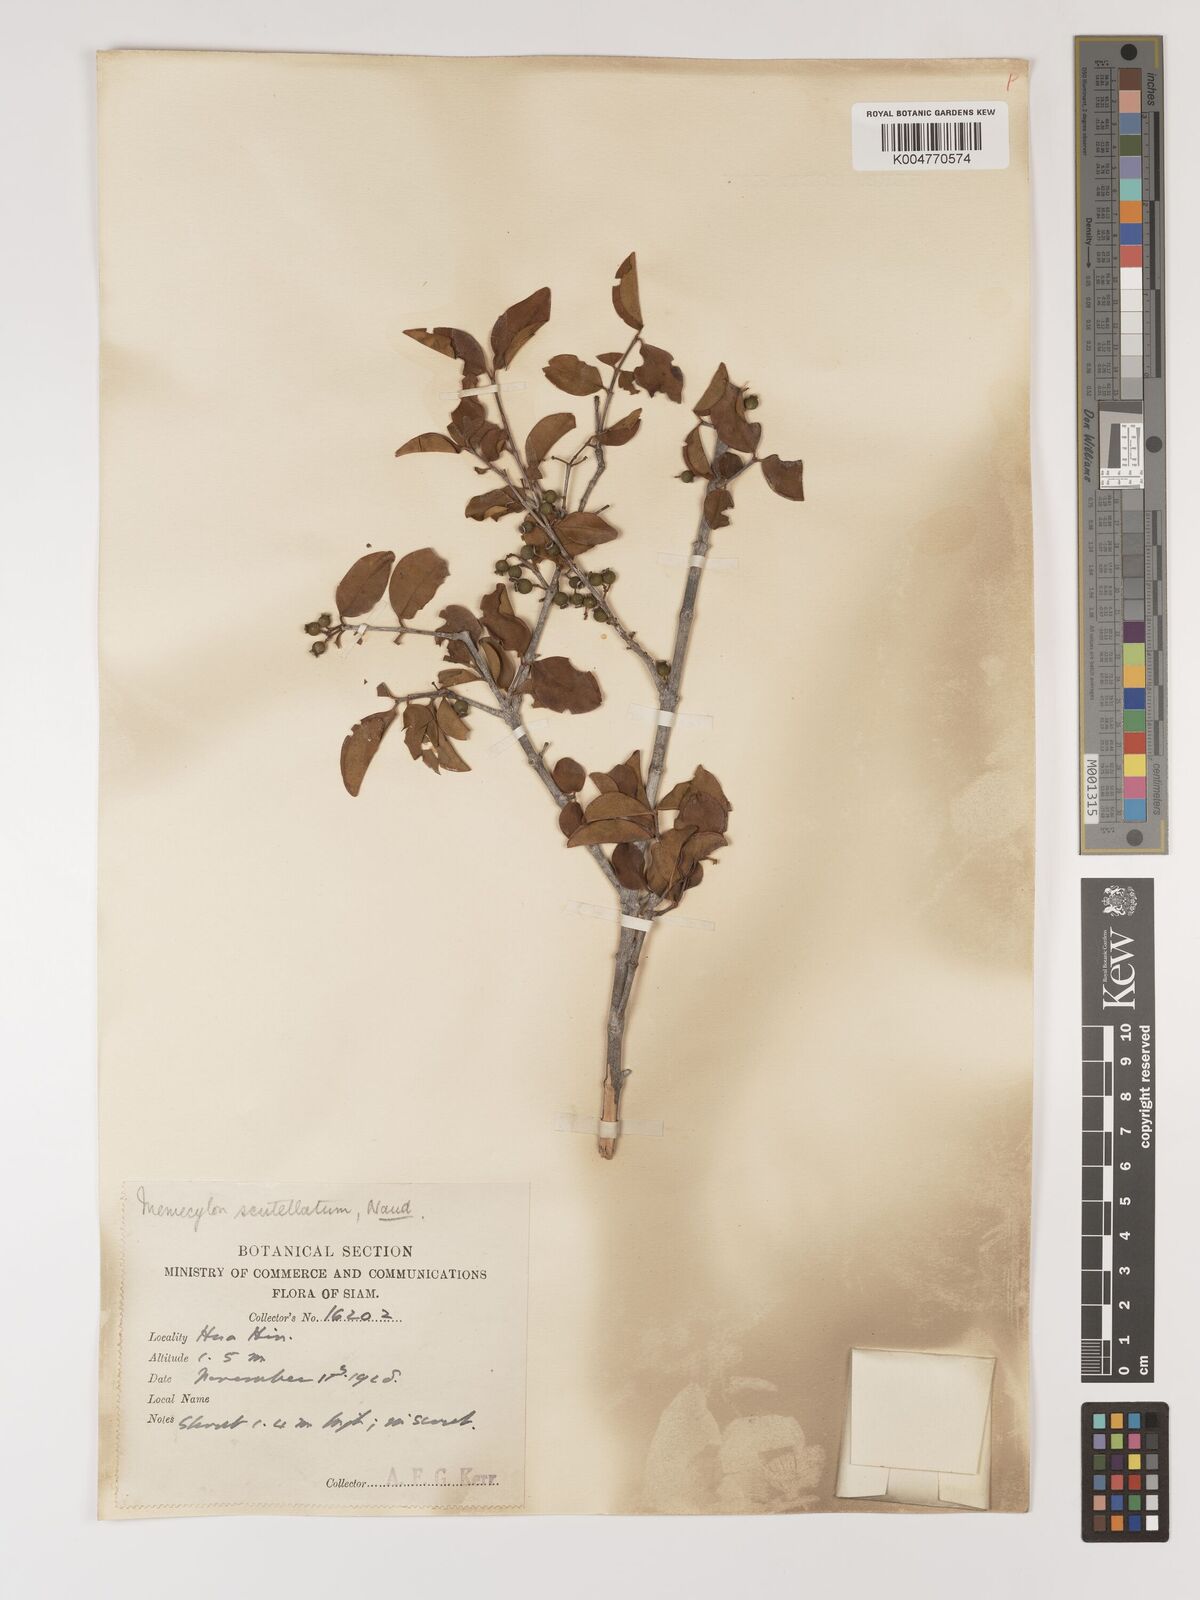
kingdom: Plantae
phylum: Tracheophyta
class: Magnoliopsida
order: Myrtales
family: Melastomataceae
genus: Memecylon
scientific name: Memecylon scutellatum
